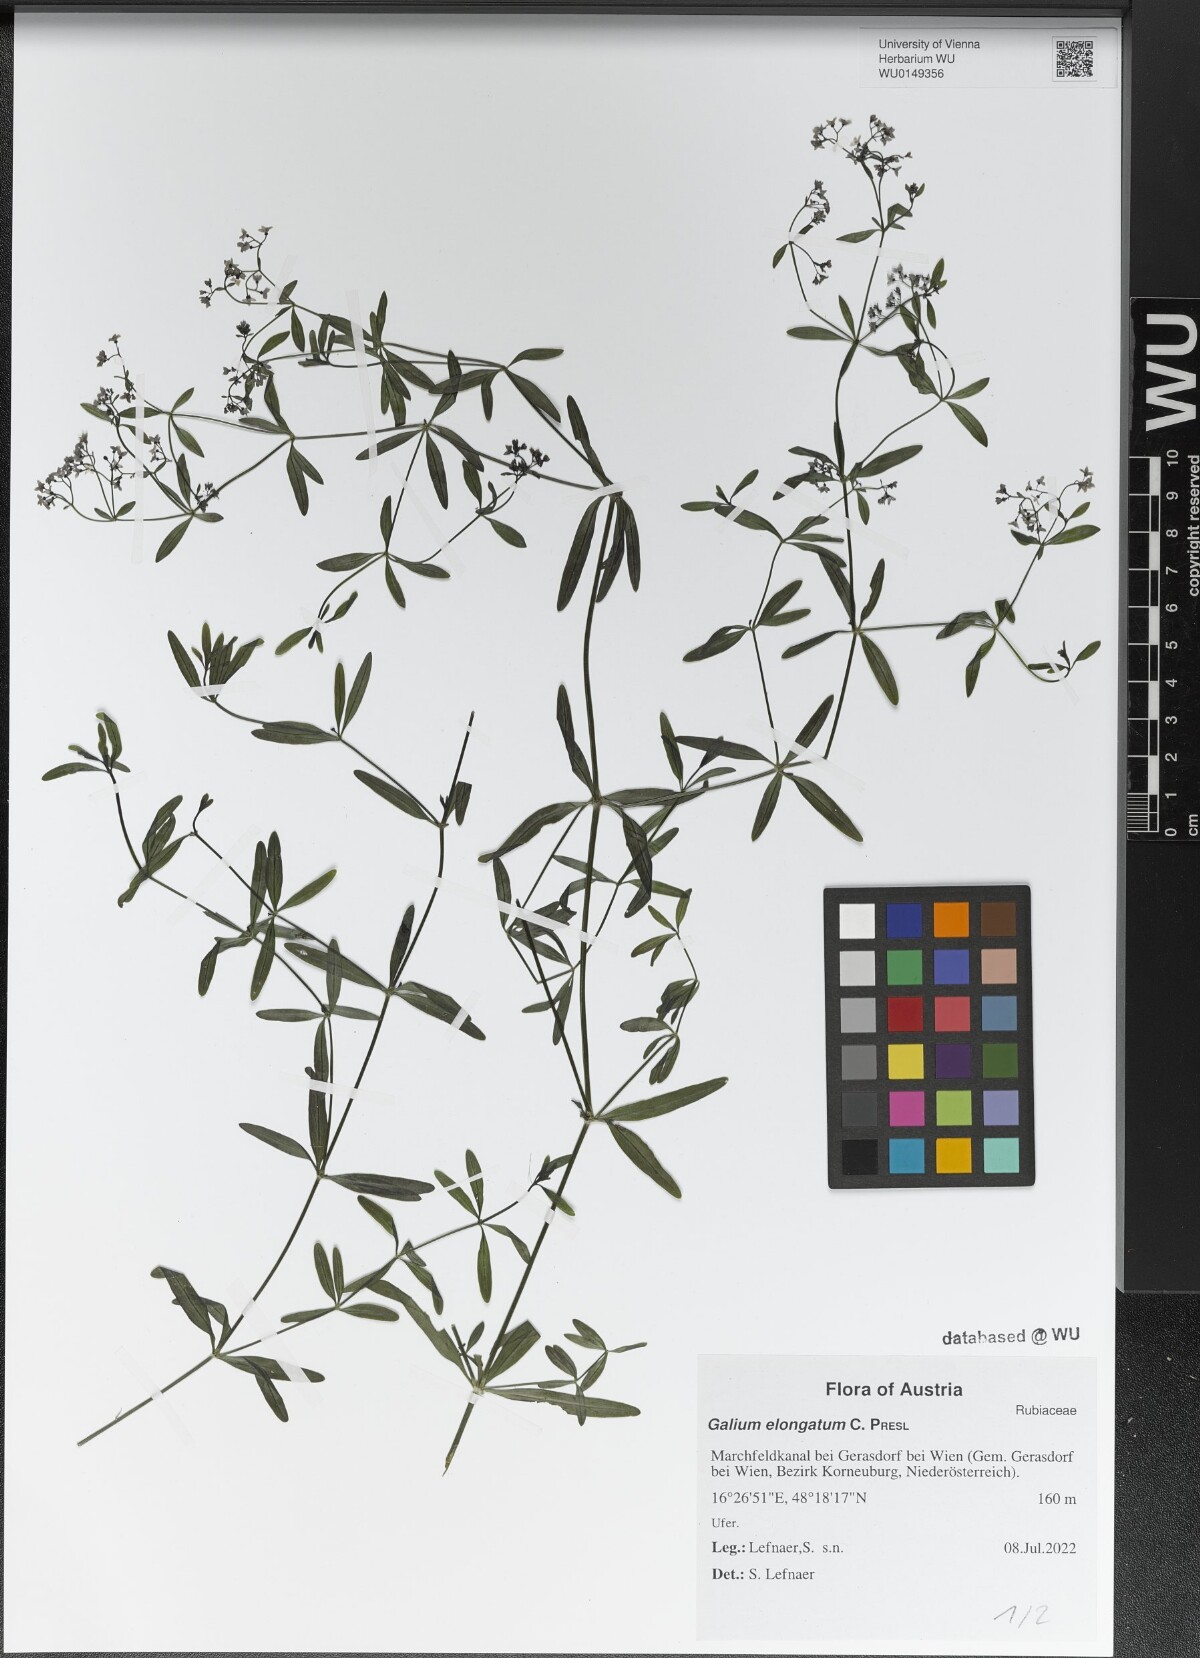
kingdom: Plantae
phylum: Tracheophyta
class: Magnoliopsida
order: Gentianales
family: Rubiaceae
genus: Galium
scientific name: Galium elongatum
